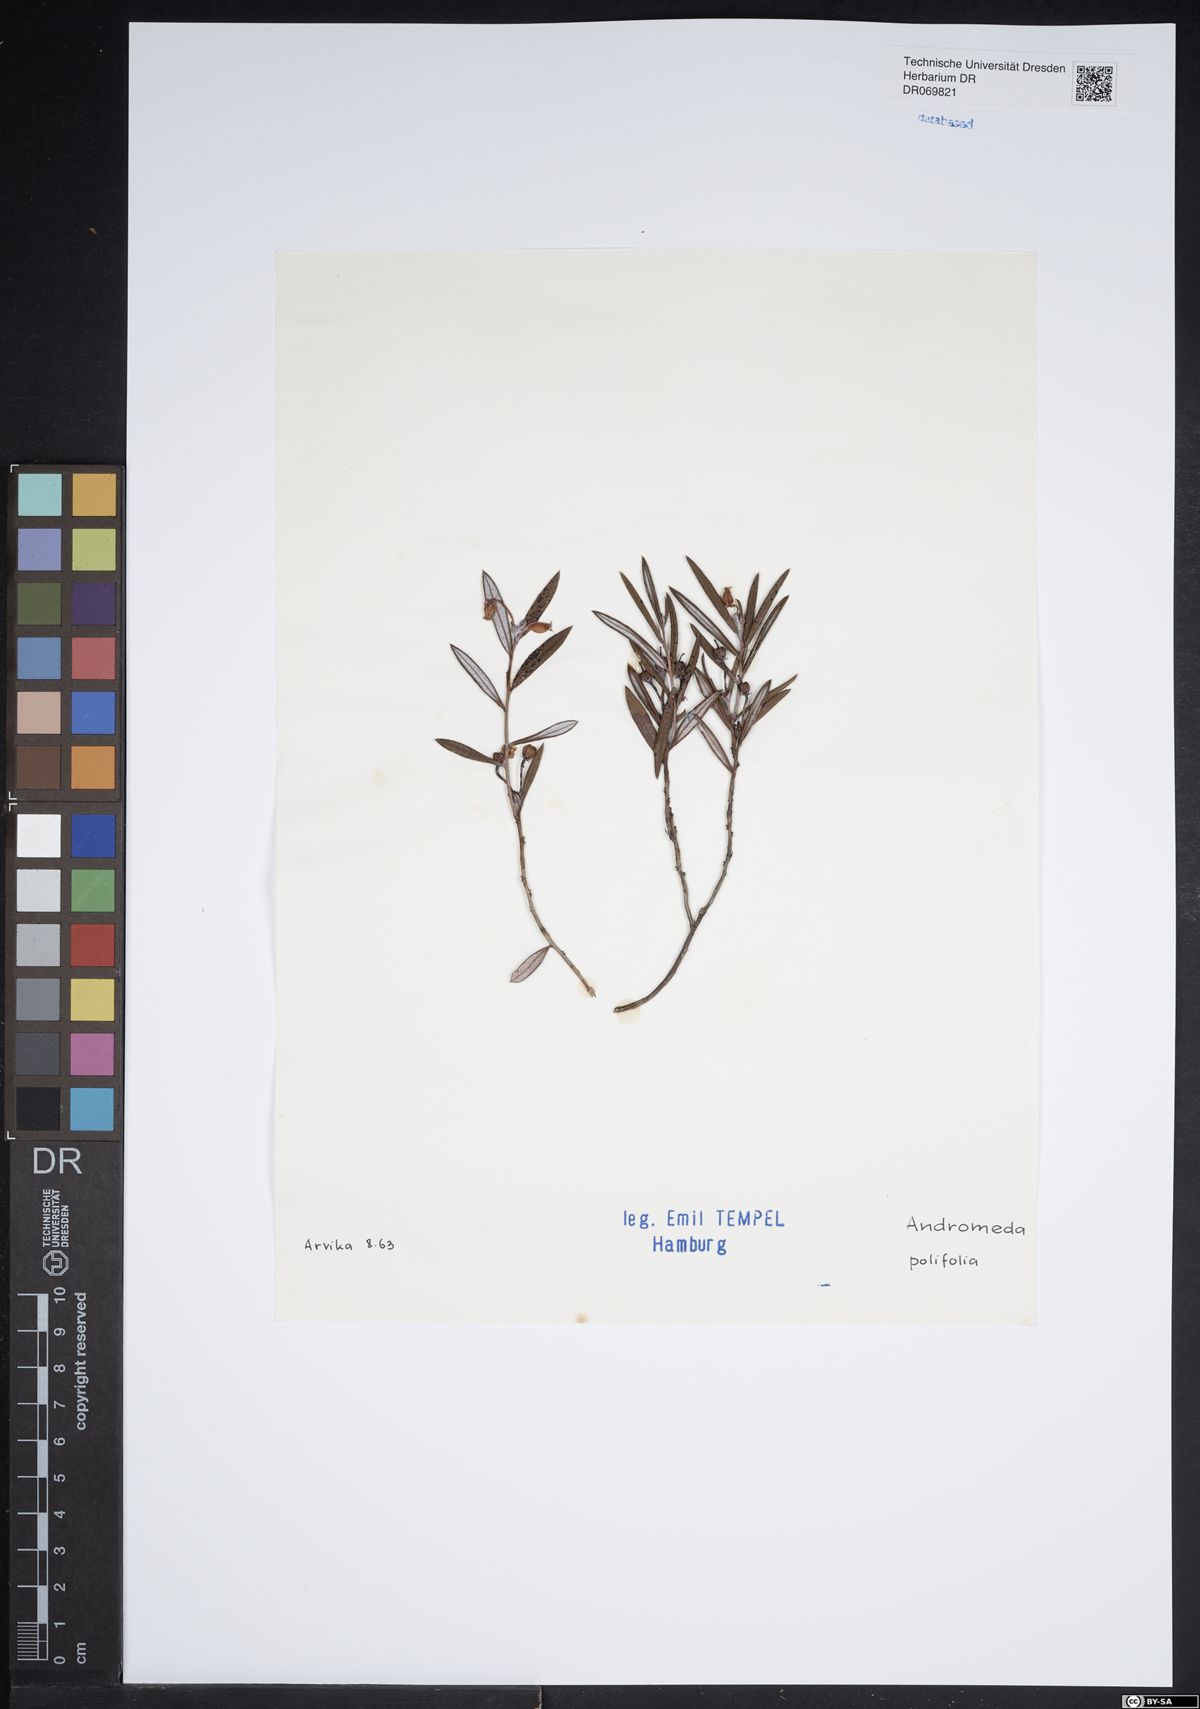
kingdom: Plantae
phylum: Tracheophyta
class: Magnoliopsida
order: Ericales
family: Ericaceae
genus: Andromeda
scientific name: Andromeda polifolia
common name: Bog-rosemary
